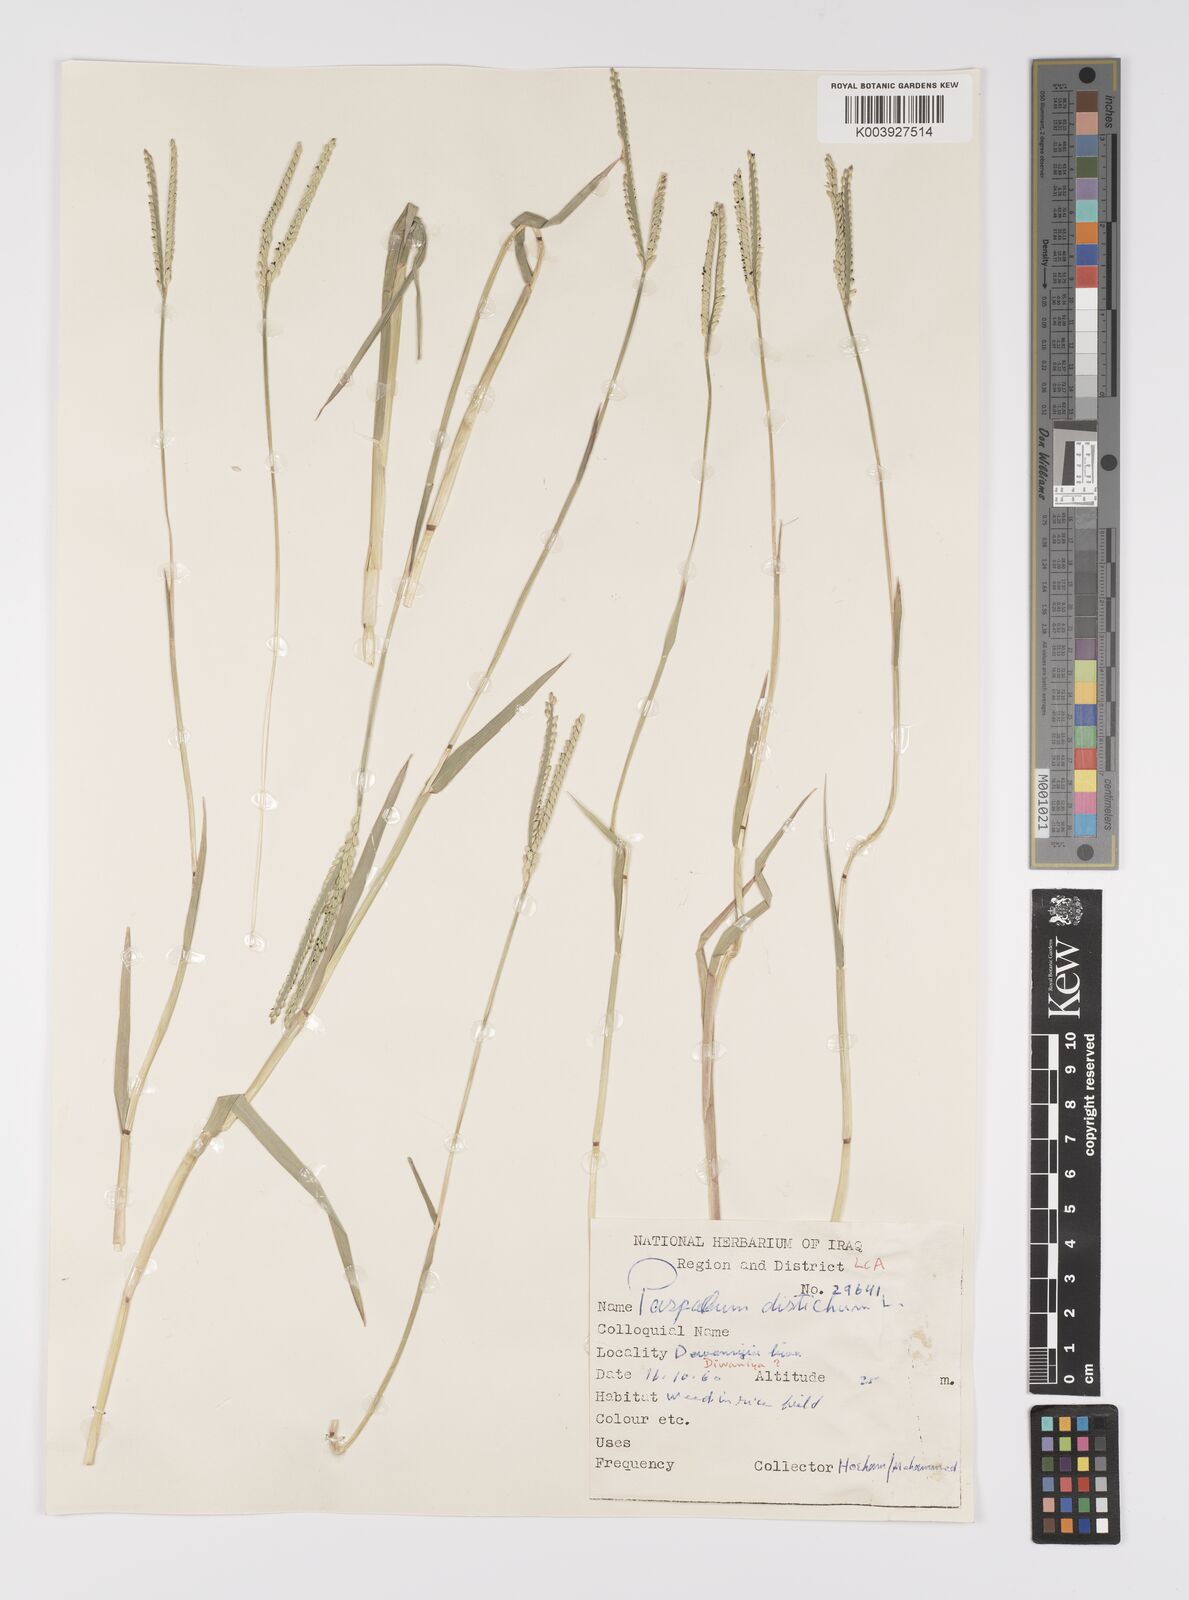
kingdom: Plantae
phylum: Tracheophyta
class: Liliopsida
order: Poales
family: Poaceae
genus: Paspalum
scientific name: Paspalum distichum
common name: Knotgrass
